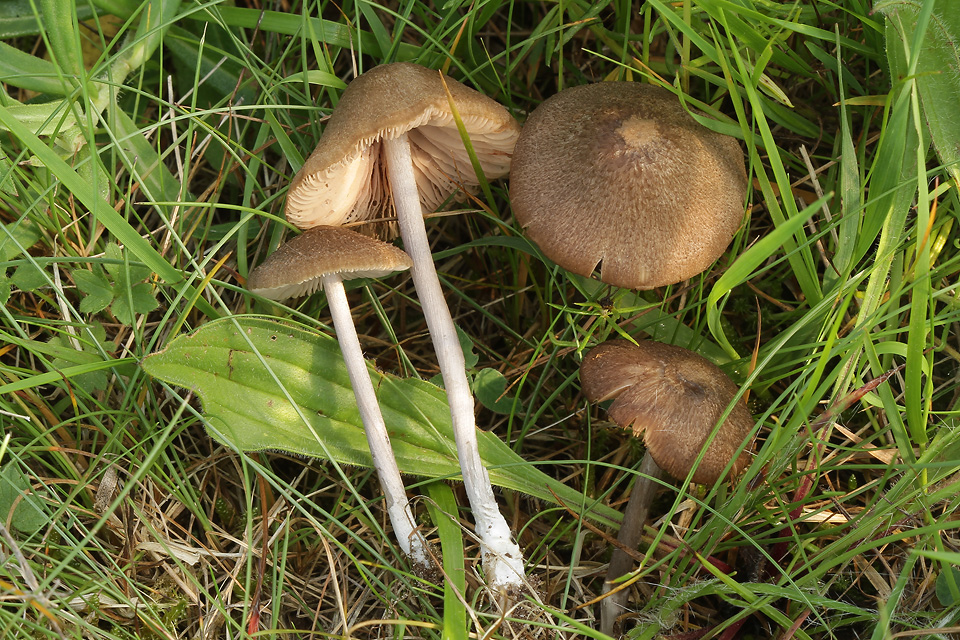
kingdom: Fungi
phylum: Basidiomycota
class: Agaricomycetes
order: Agaricales
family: Entolomataceae
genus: Entoloma
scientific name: Entoloma griseocyaneum
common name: gråblå rødblad
